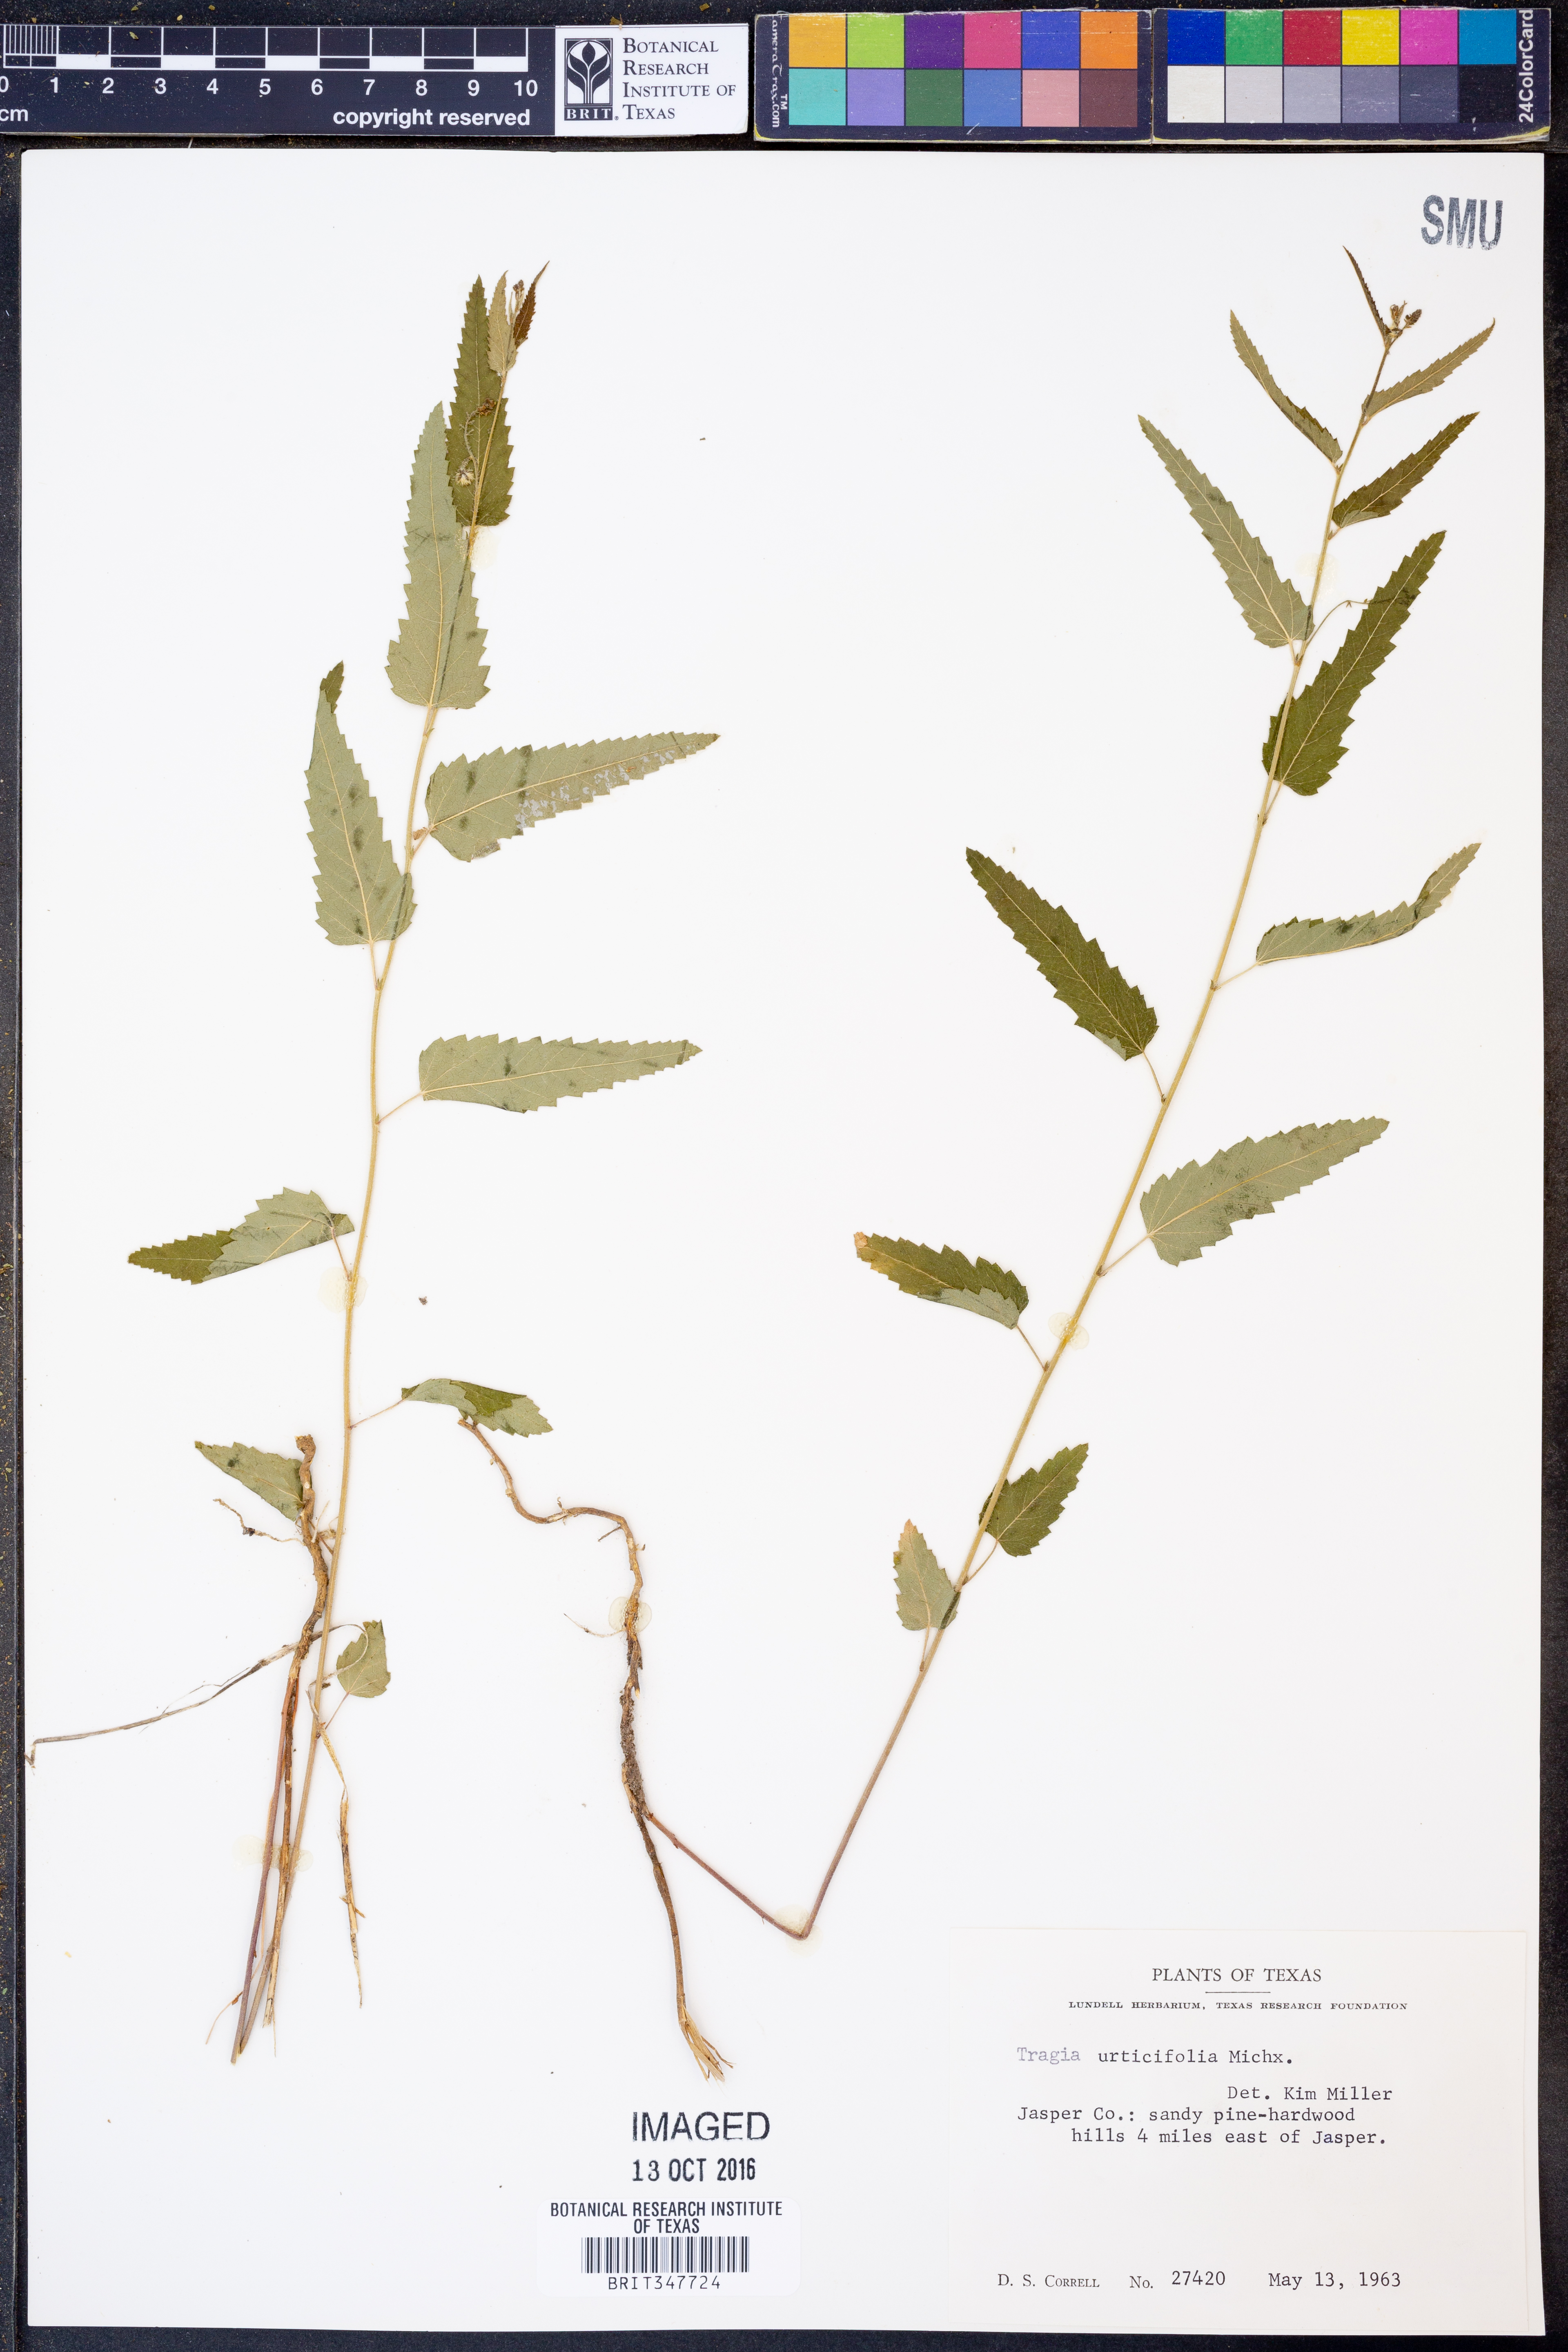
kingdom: Plantae
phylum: Tracheophyta
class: Magnoliopsida
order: Malpighiales
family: Euphorbiaceae
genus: Tragia
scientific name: Tragia urticifolia
